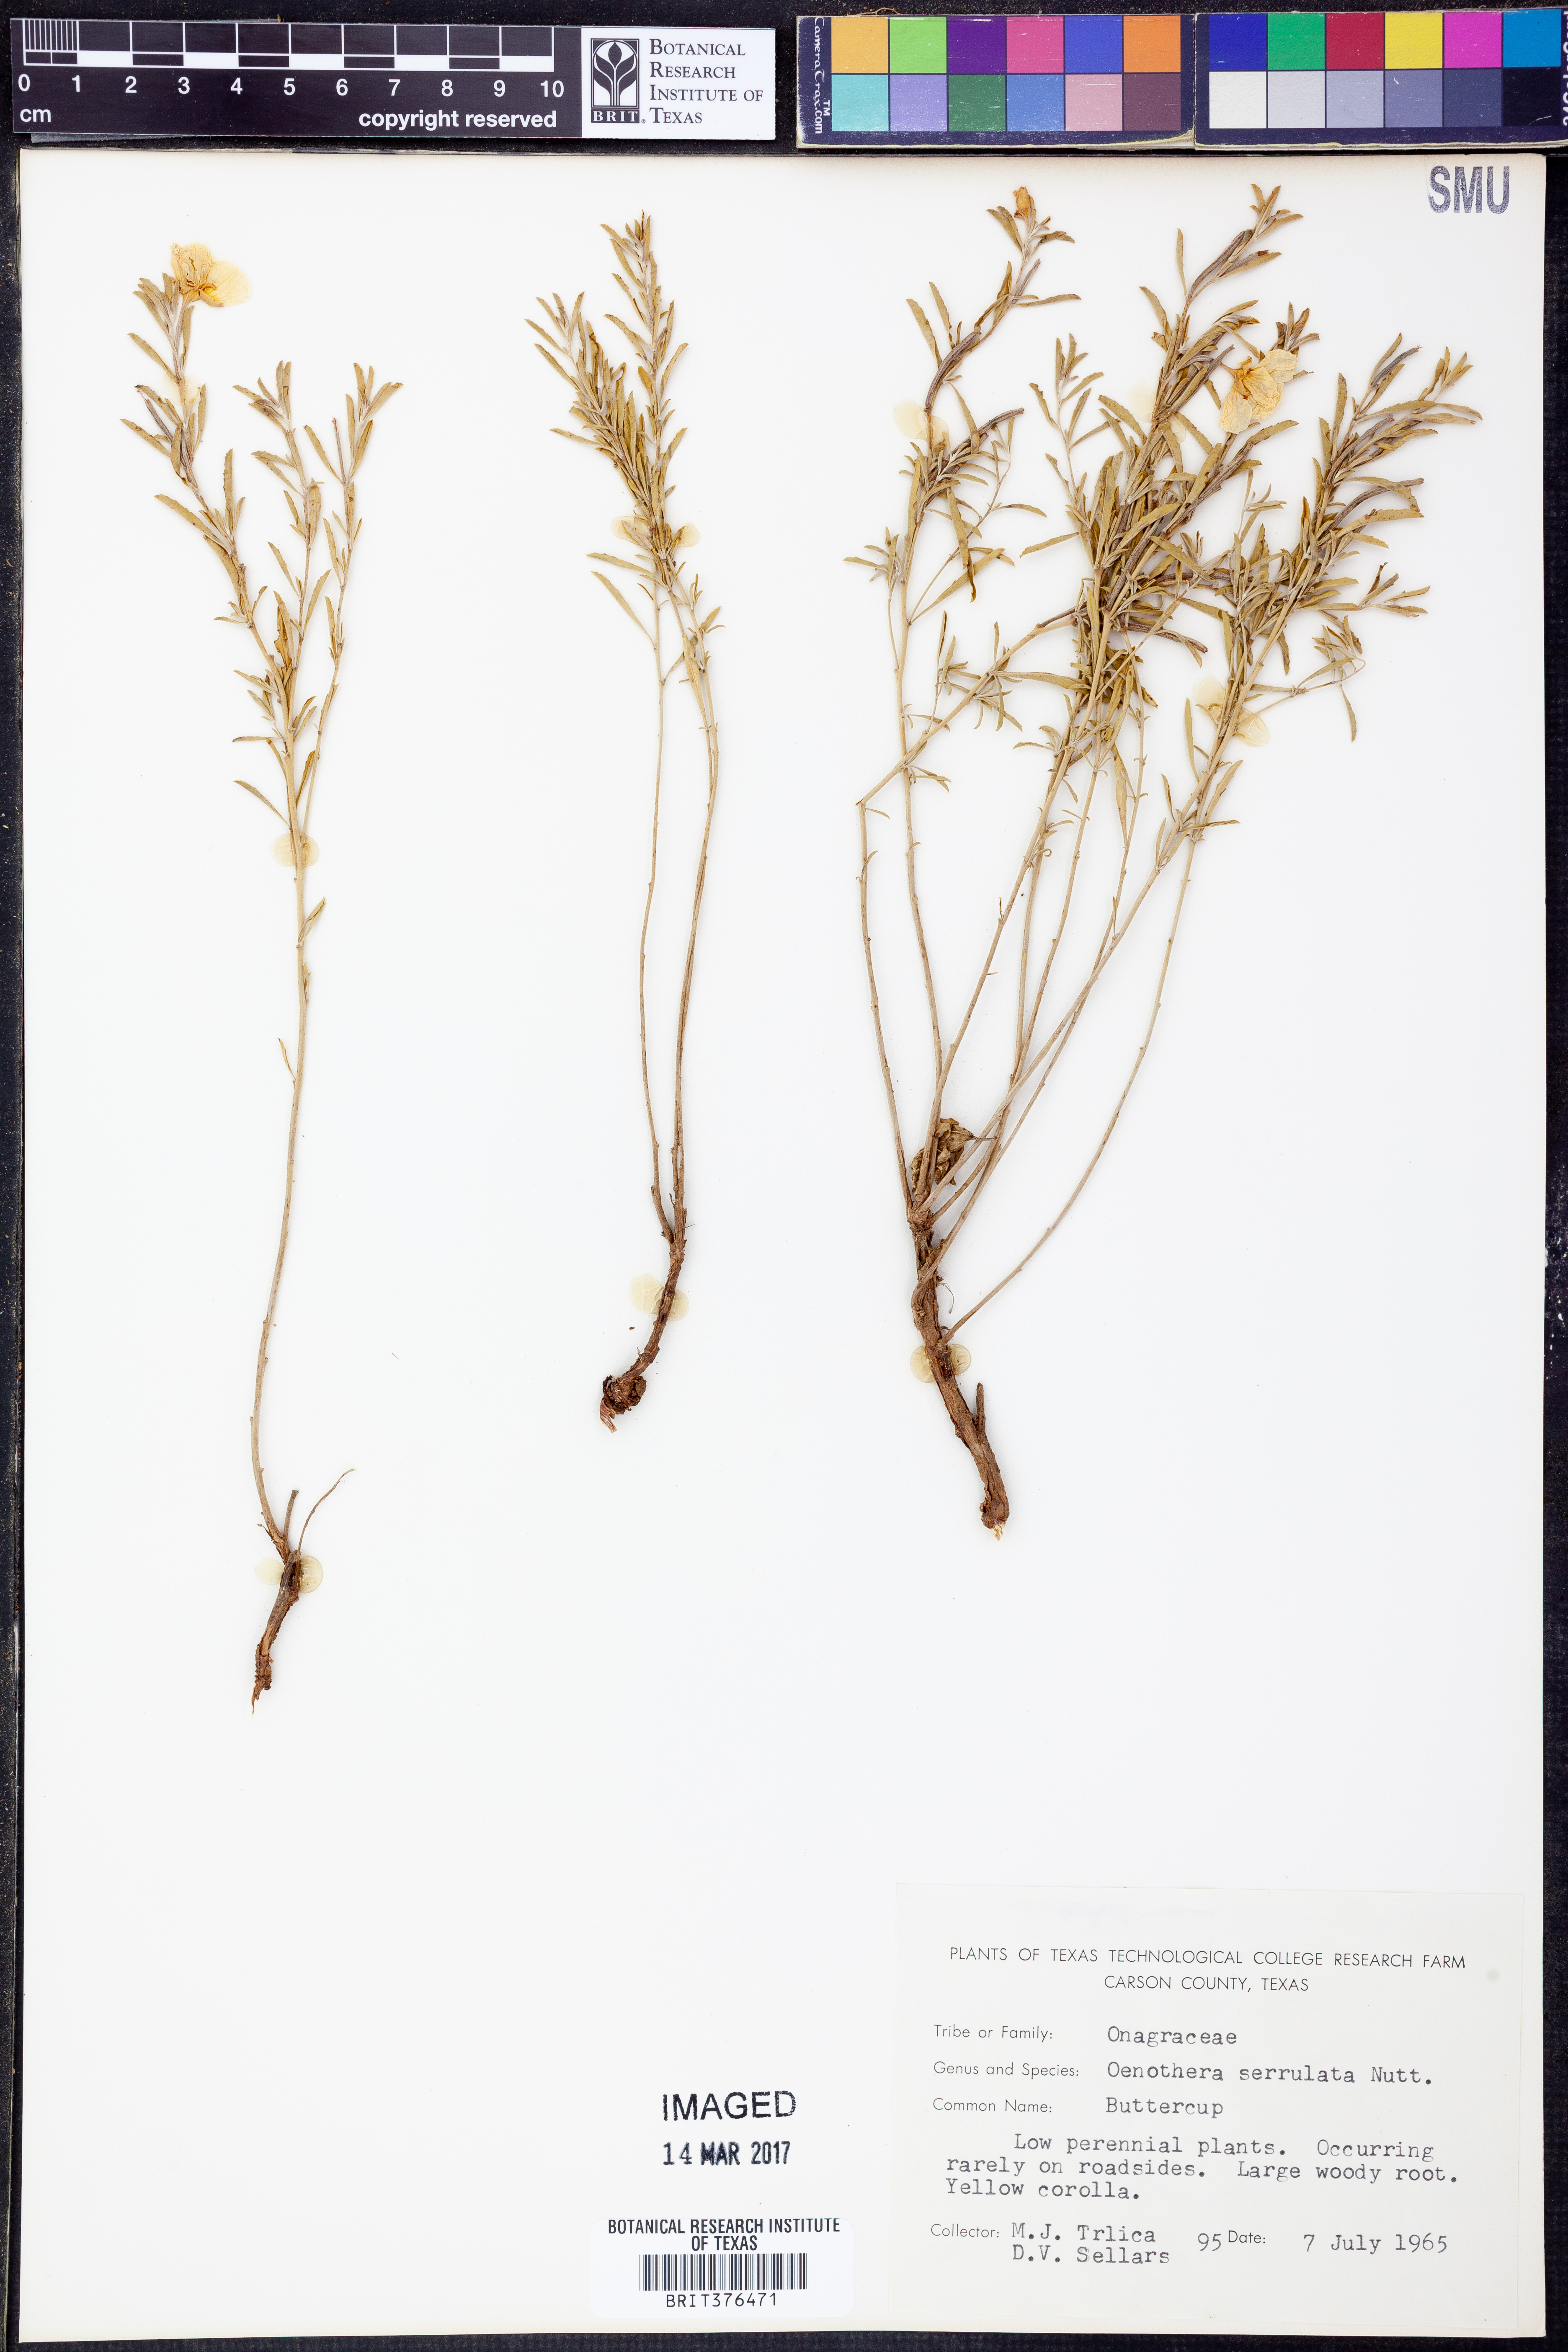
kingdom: Plantae
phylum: Tracheophyta
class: Magnoliopsida
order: Myrtales
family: Onagraceae
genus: Oenothera
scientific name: Oenothera serrulata
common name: Half-shrub calylophus
